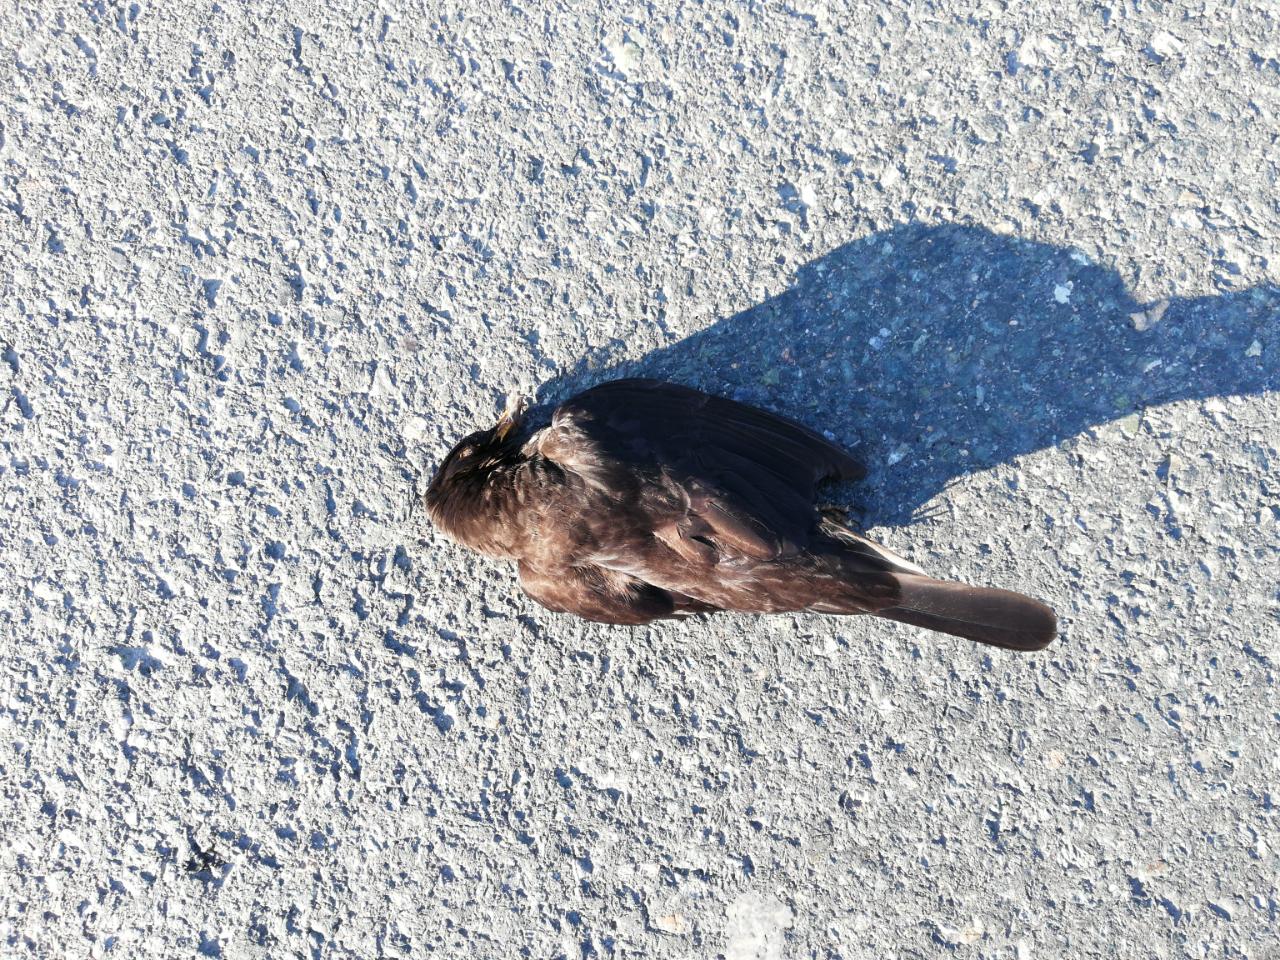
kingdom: Animalia
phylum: Chordata
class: Aves
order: Passeriformes
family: Turdidae
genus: Turdus
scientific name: Turdus merula
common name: Common blackbird
